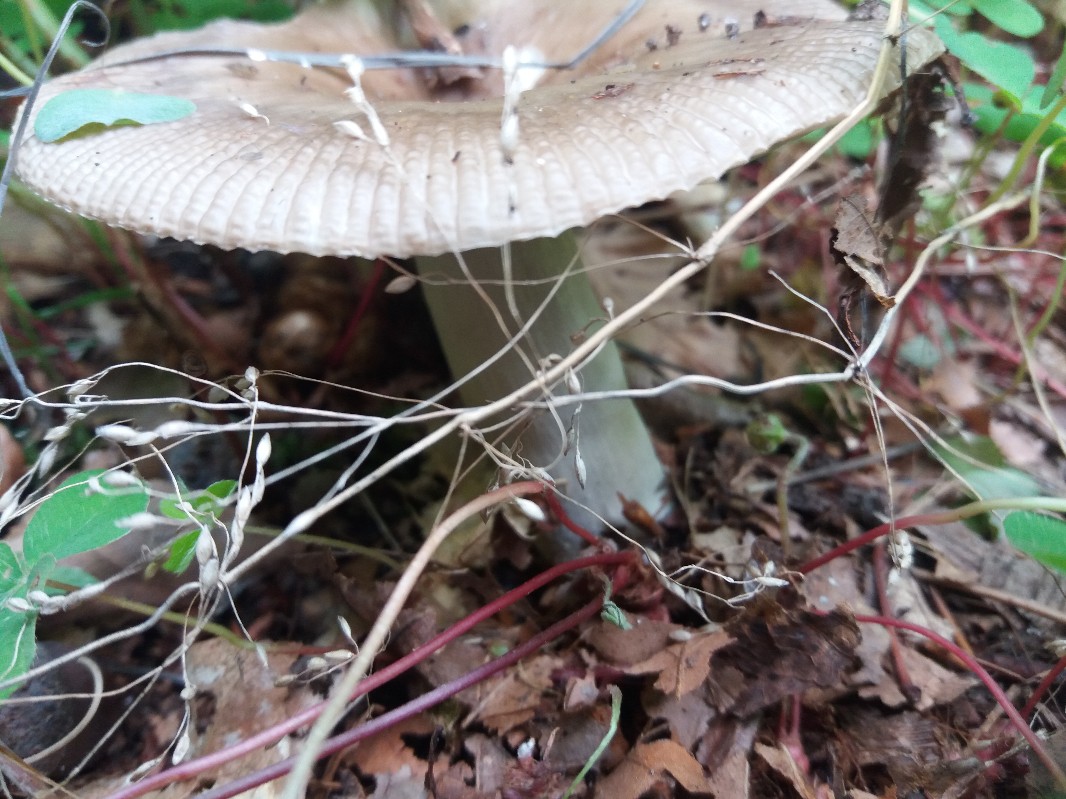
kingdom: Fungi
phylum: Basidiomycota
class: Agaricomycetes
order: Russulales
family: Russulaceae
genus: Russula
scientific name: Russula
